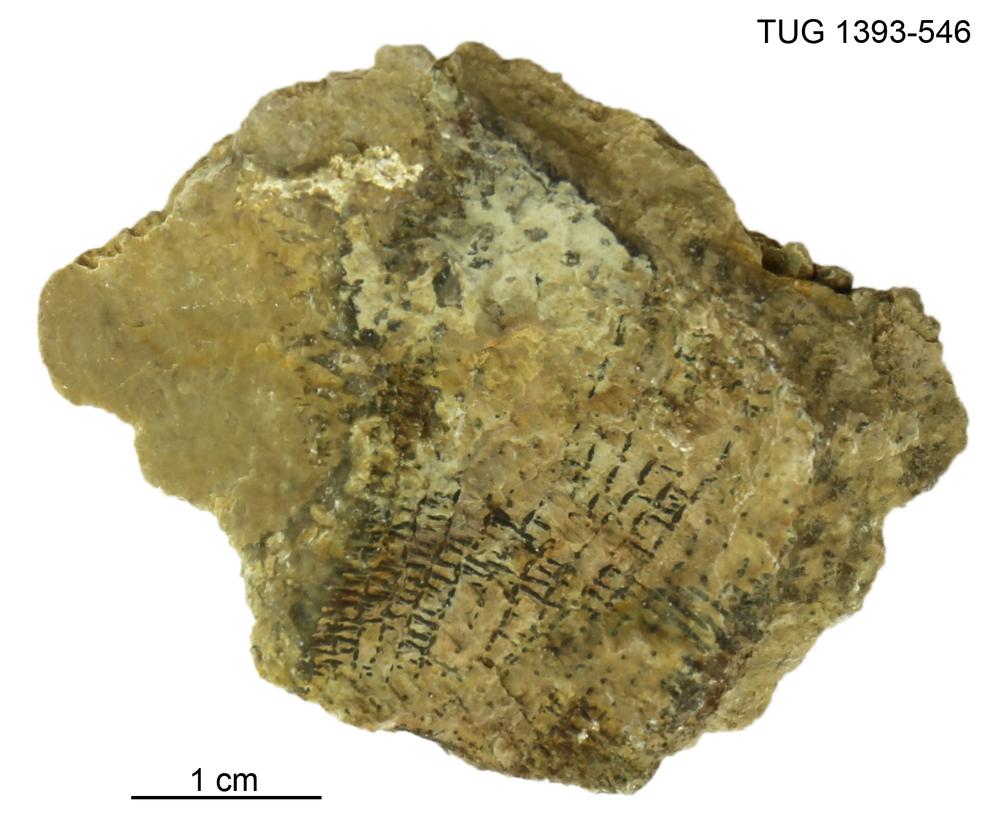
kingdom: Plantae
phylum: Chlorophyta
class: Chlorophyceae
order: Receptaculitales
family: Receptaculitaceae
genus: Receptaculites
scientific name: Receptaculites
